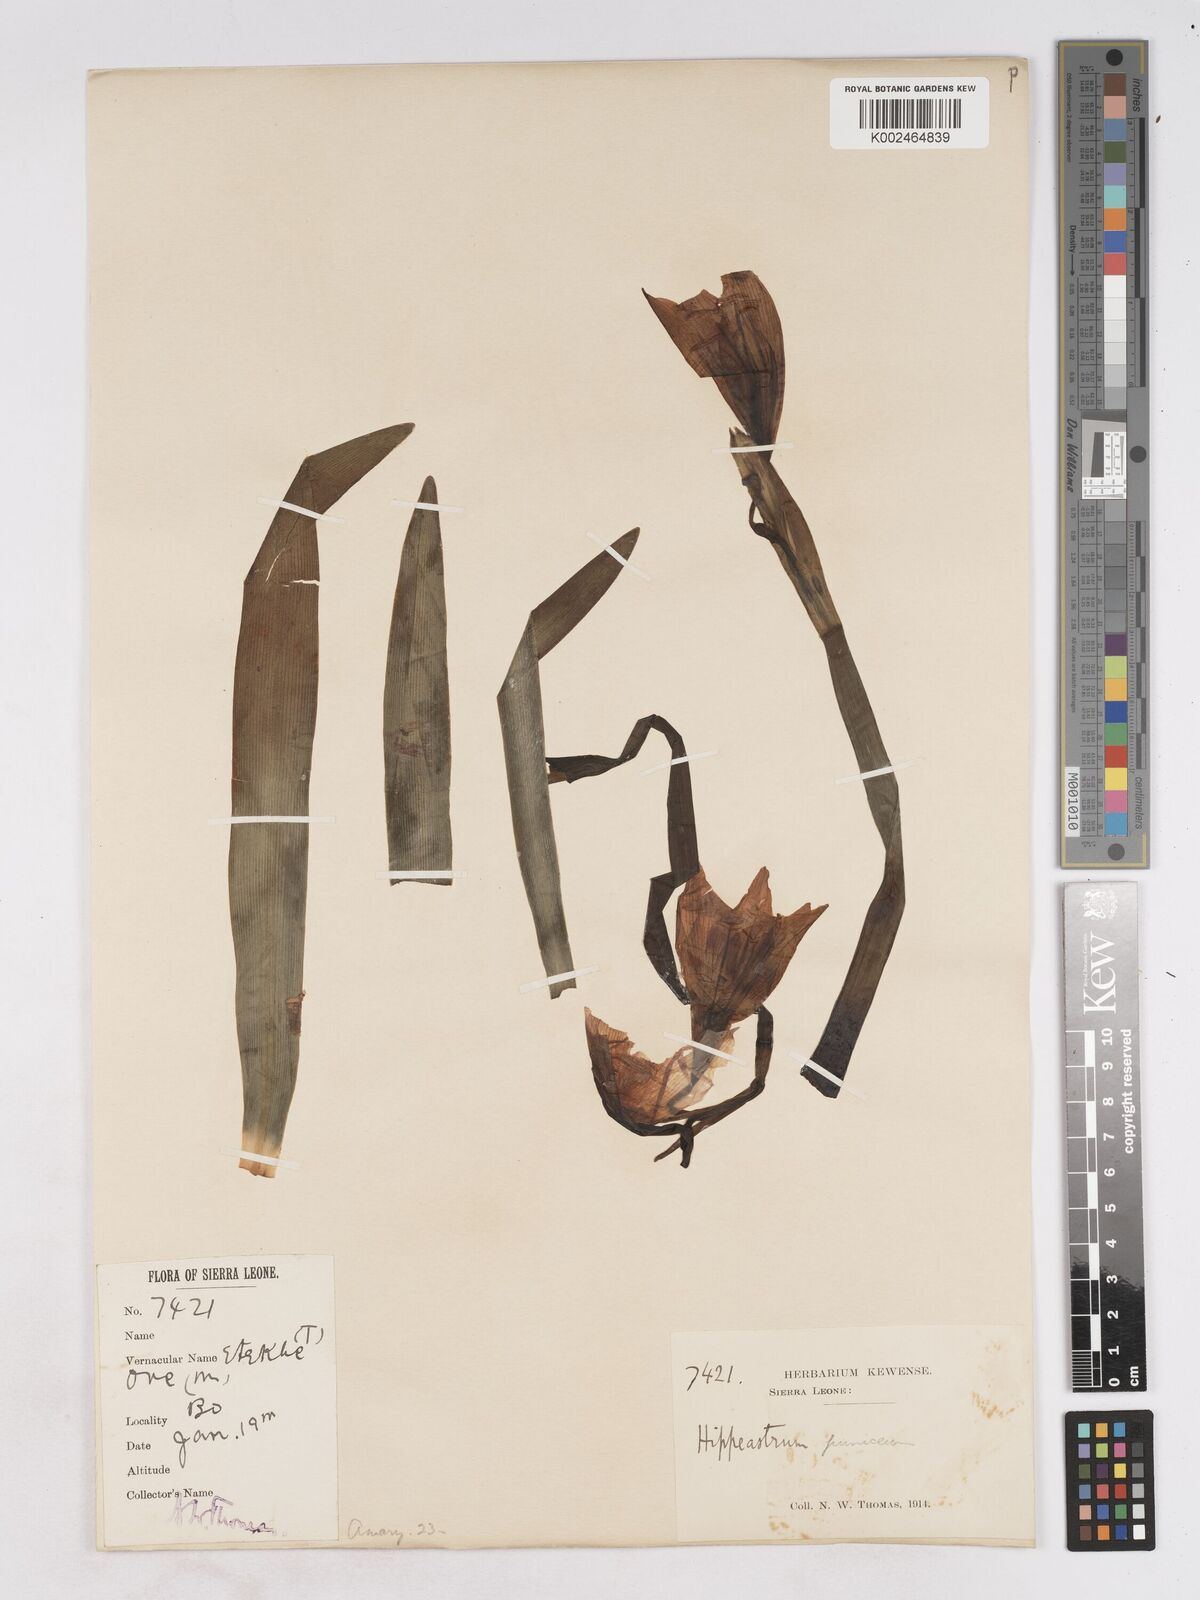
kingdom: Plantae
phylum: Tracheophyta
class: Liliopsida
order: Asparagales
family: Amaryllidaceae
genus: Hippeastrum
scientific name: Hippeastrum puniceum
